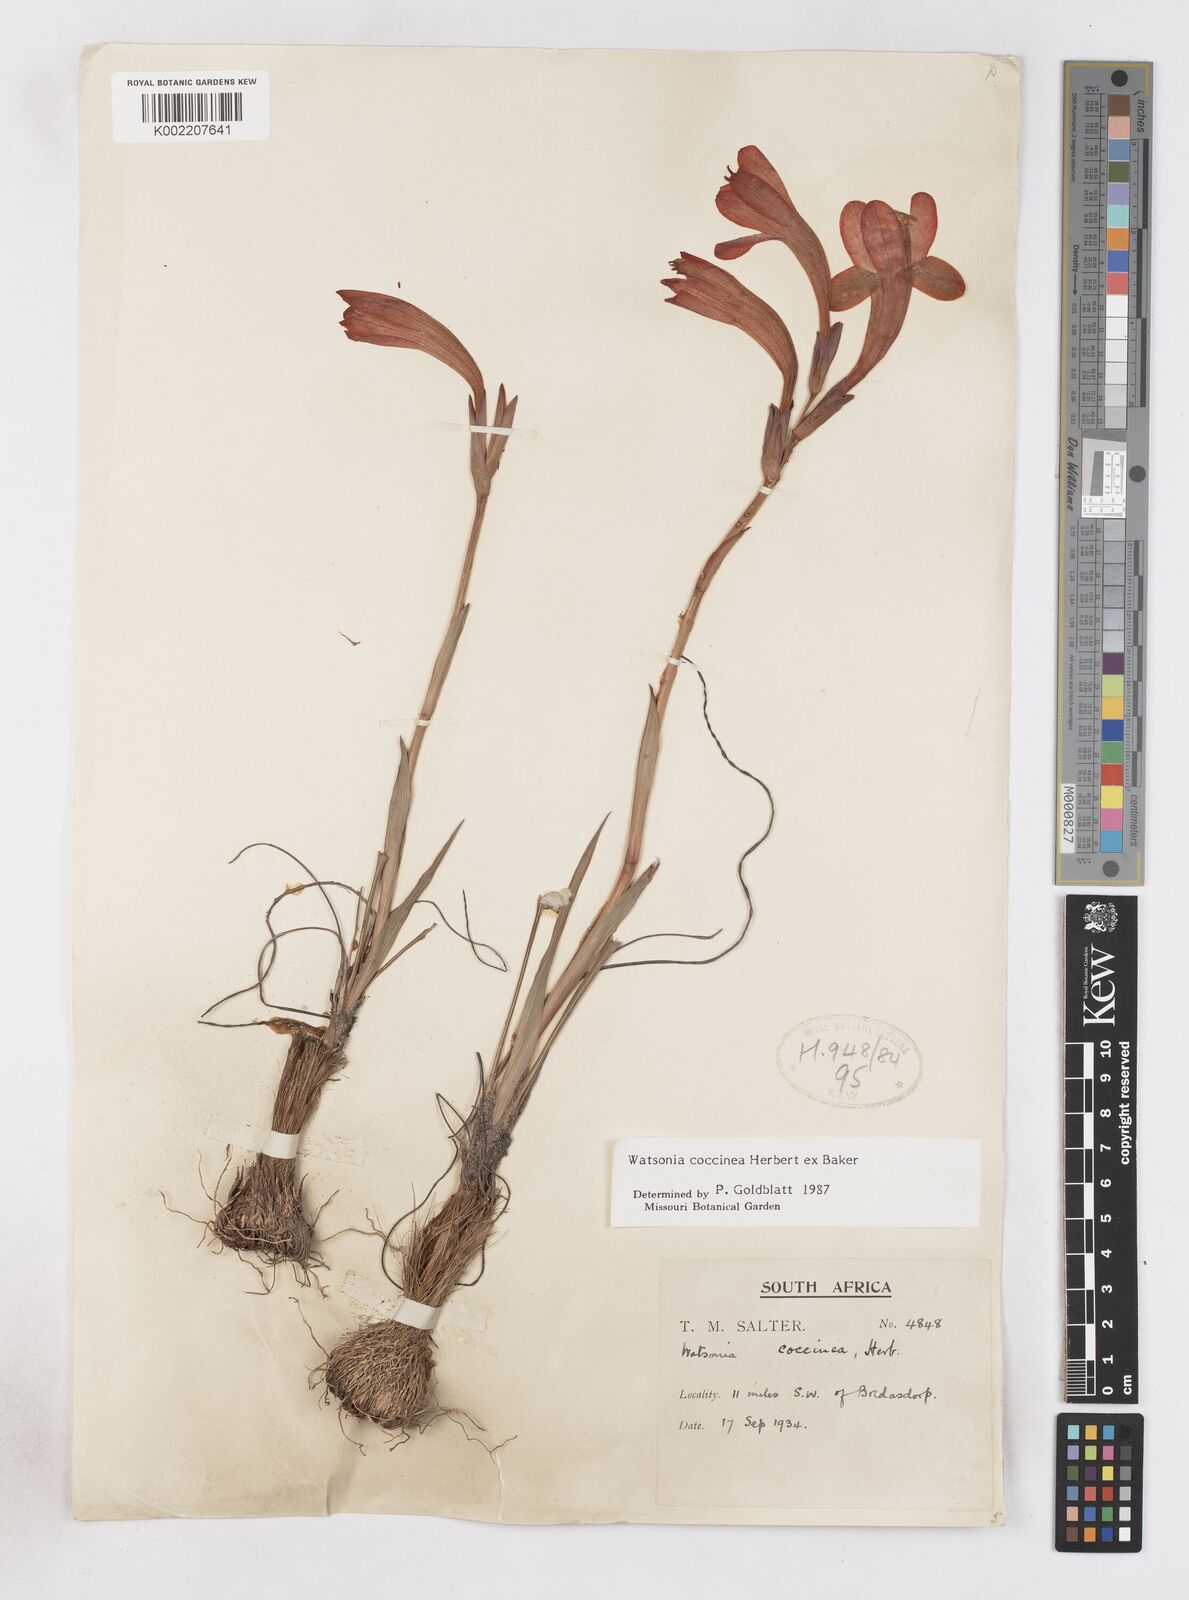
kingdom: Plantae
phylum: Tracheophyta
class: Liliopsida
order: Asparagales
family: Iridaceae
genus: Watsonia
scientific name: Watsonia coccinea
